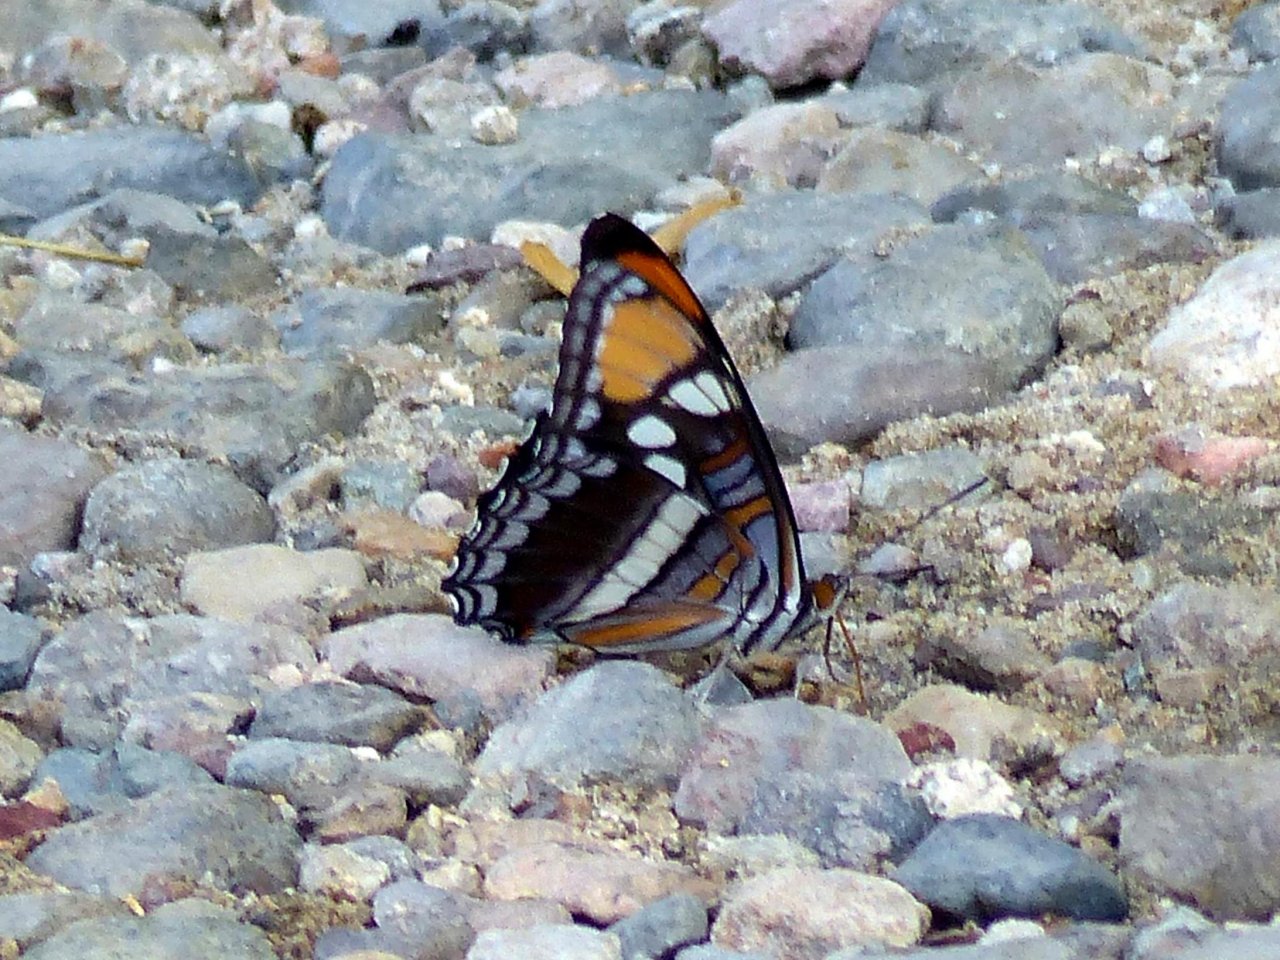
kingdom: Animalia
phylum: Arthropoda
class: Insecta
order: Lepidoptera
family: Nymphalidae
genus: Limenitis
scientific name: Limenitis bredowii
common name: Arizona Sister
